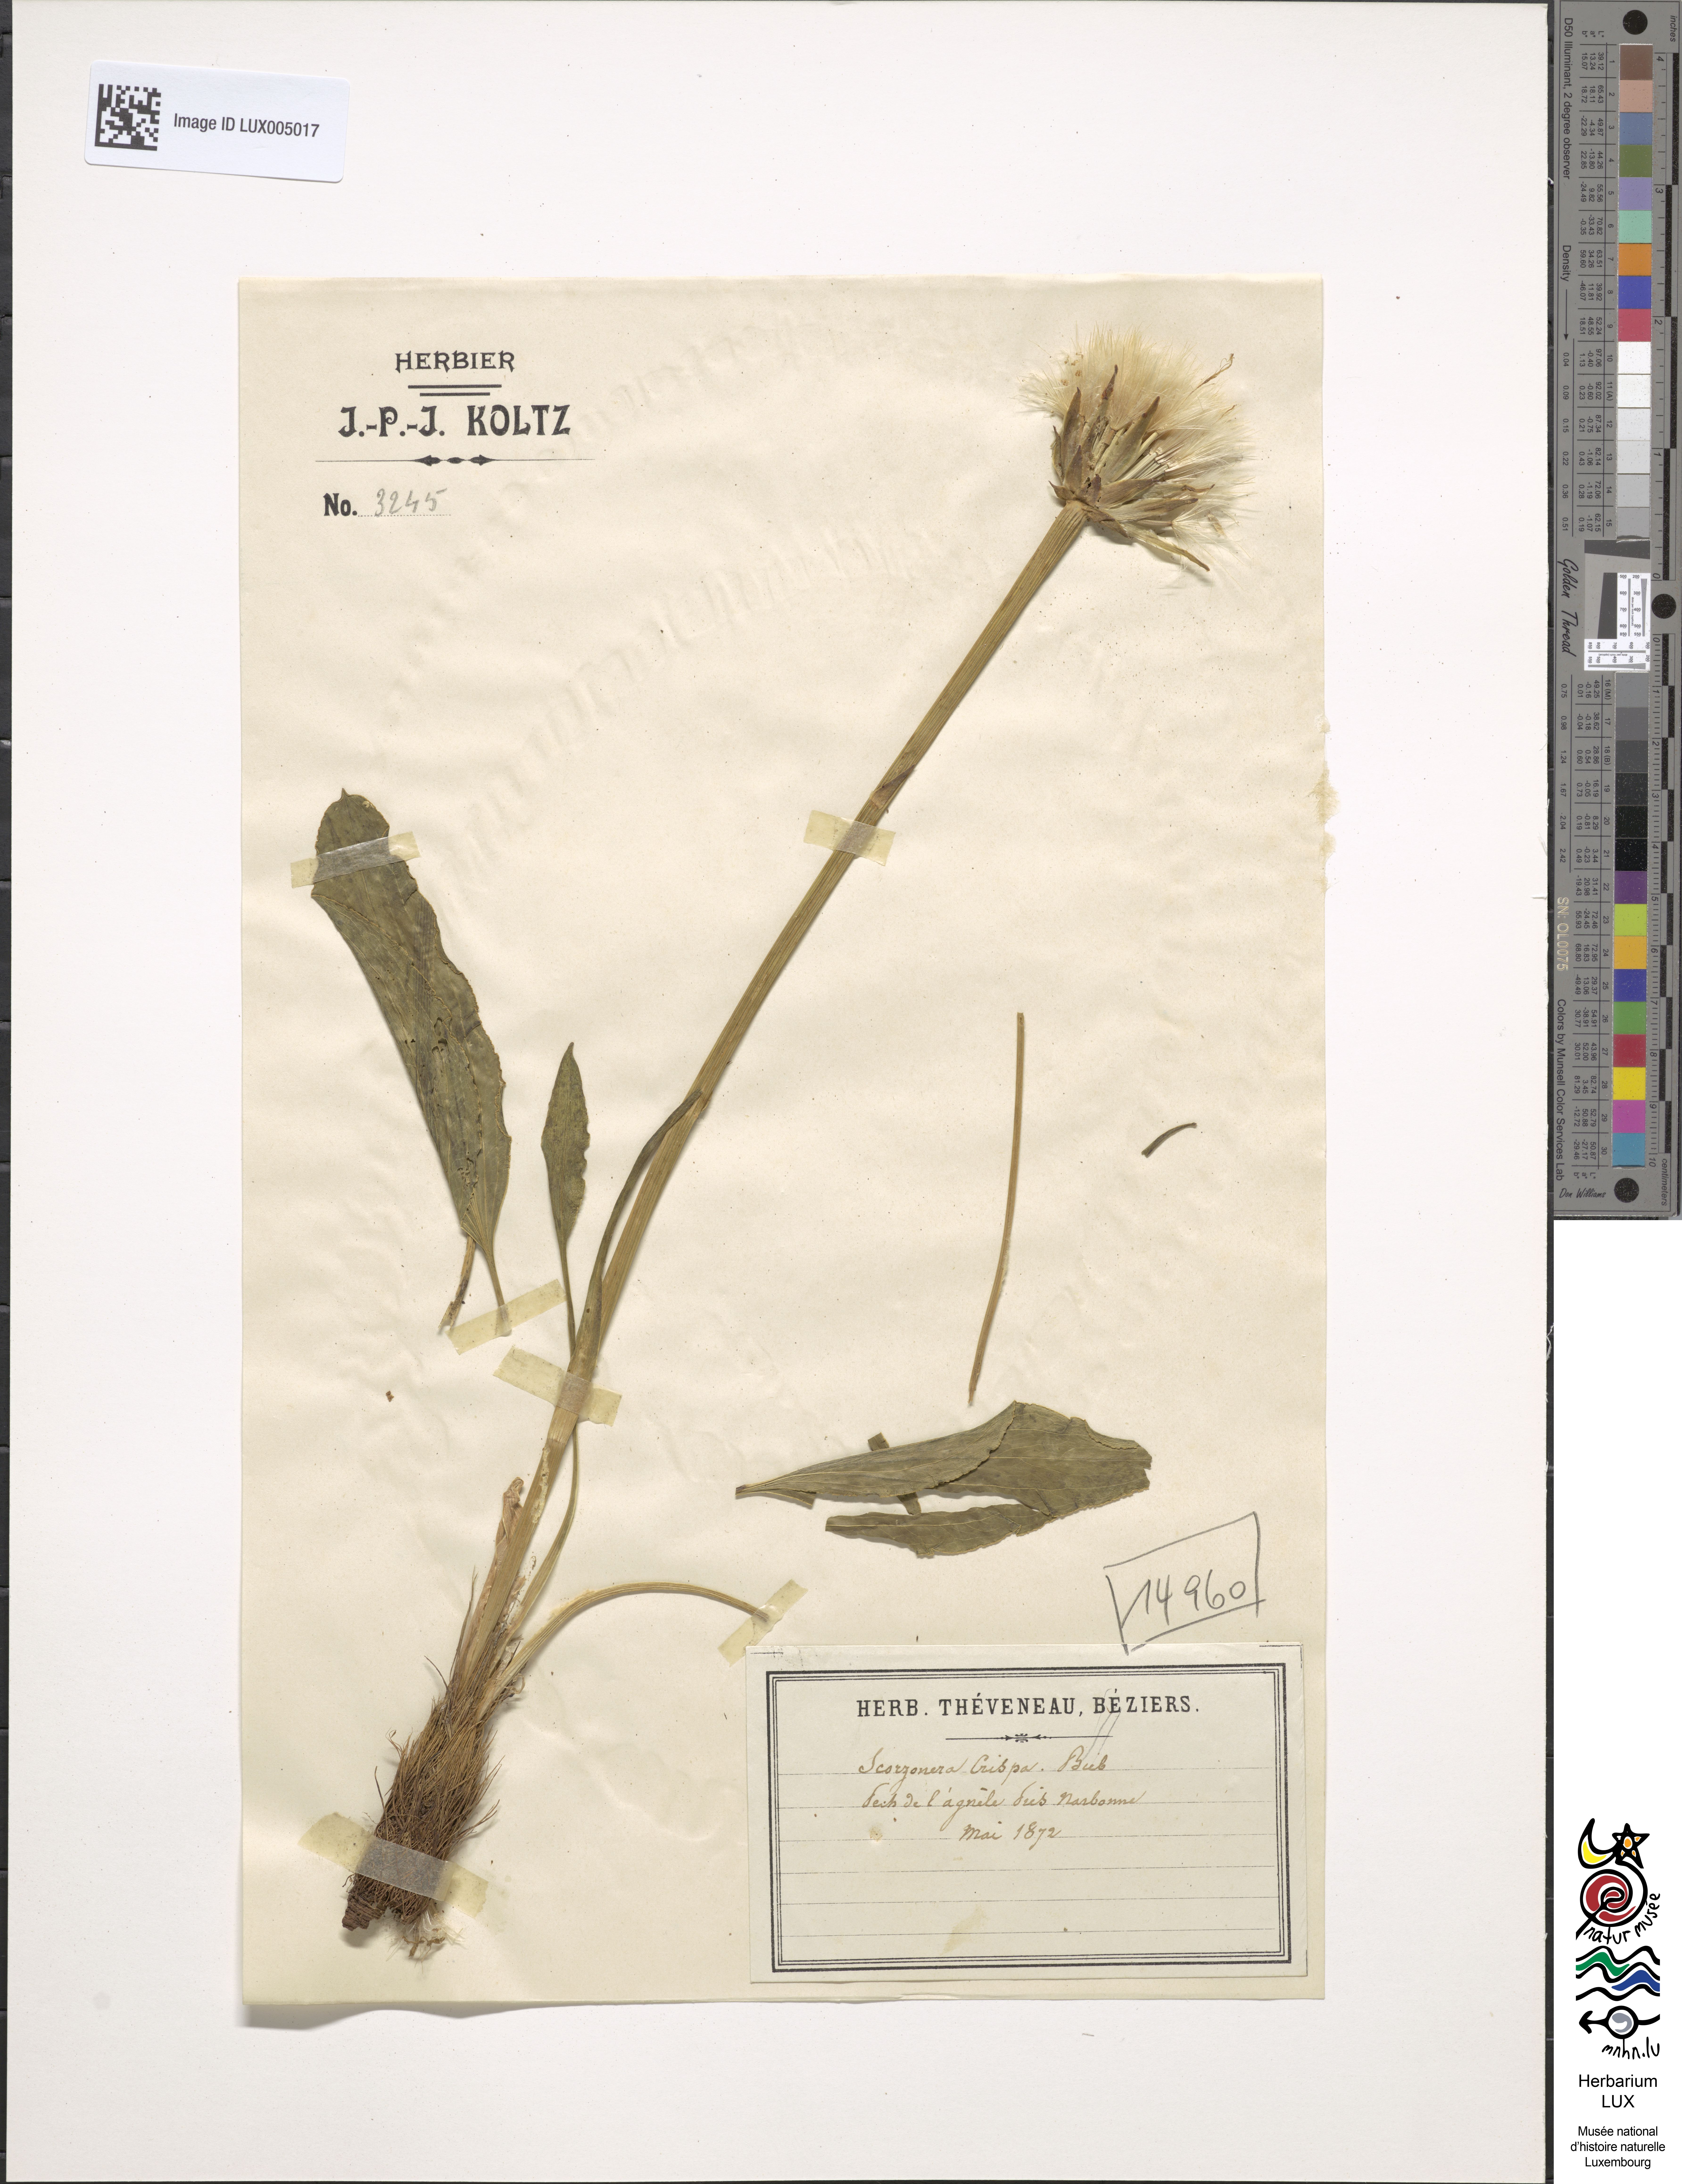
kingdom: Plantae
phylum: Tracheophyta
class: Magnoliopsida
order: Asterales
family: Asteraceae
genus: Takhtajaniantha
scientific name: Takhtajaniantha crispa
